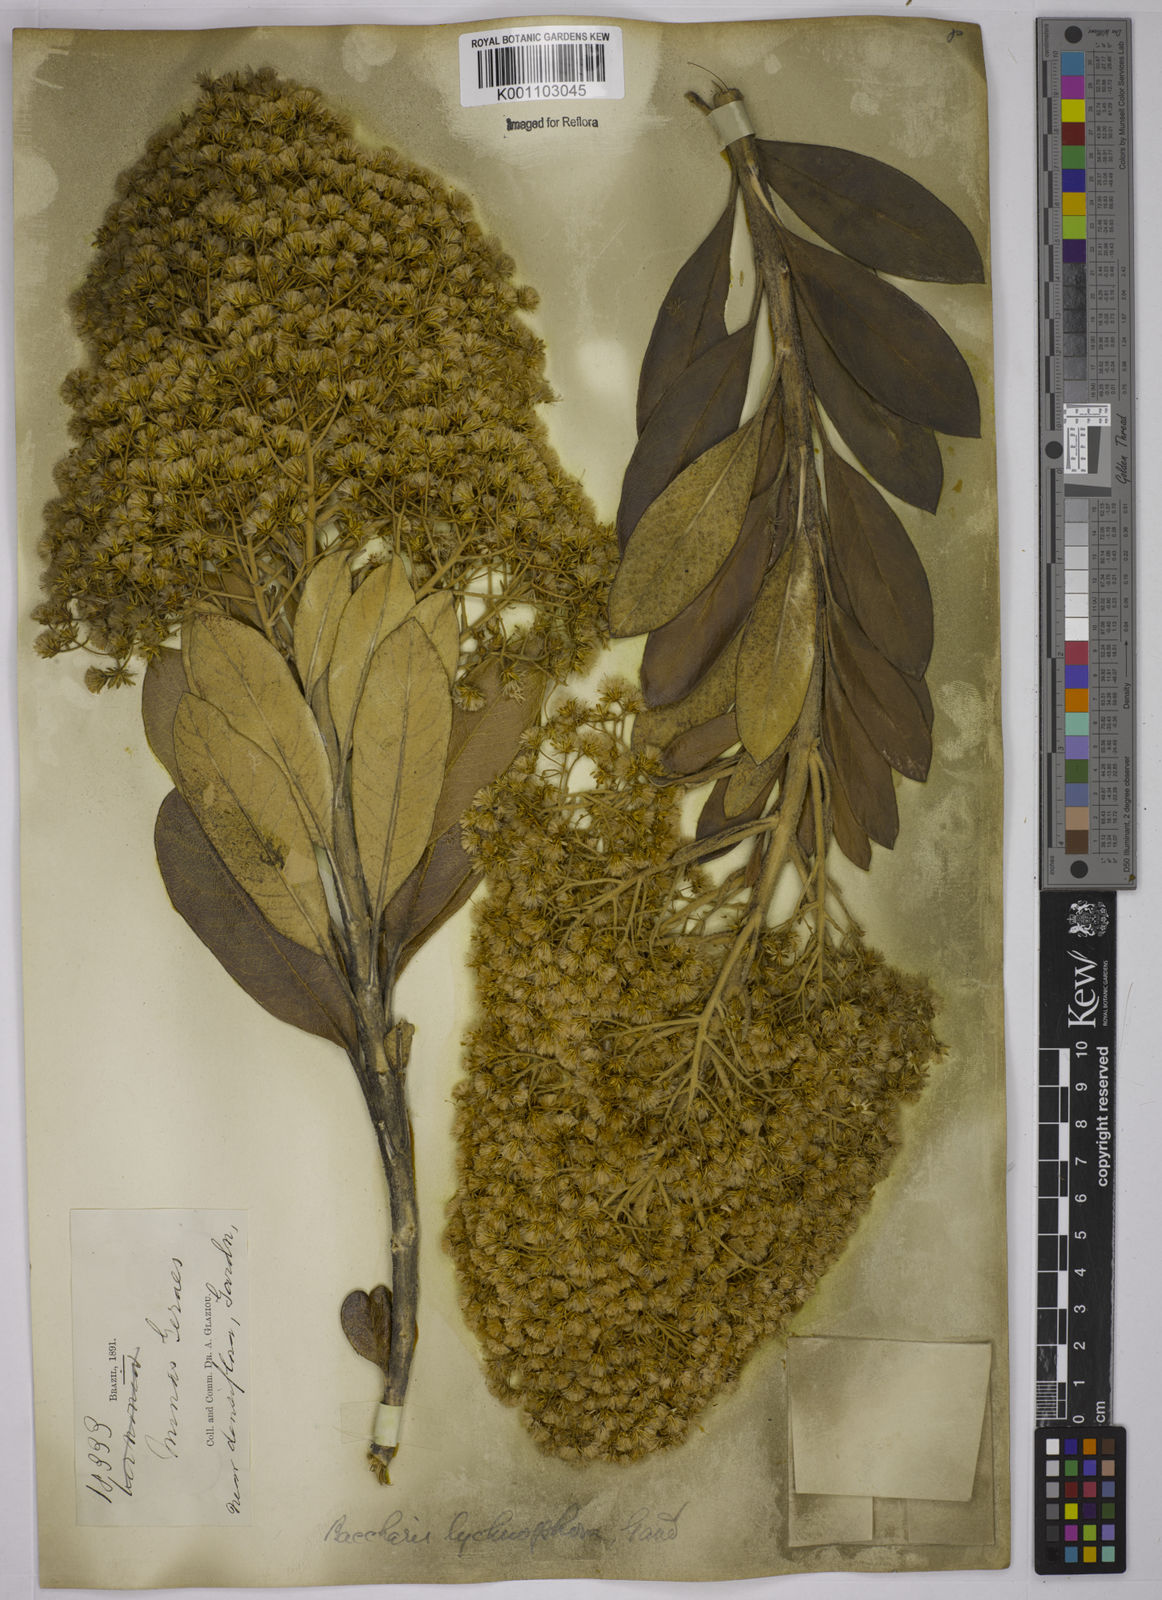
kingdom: Plantae
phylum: Tracheophyta
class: Magnoliopsida
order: Asterales
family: Asteraceae
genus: Baccharis
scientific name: Baccharis lychnophora
